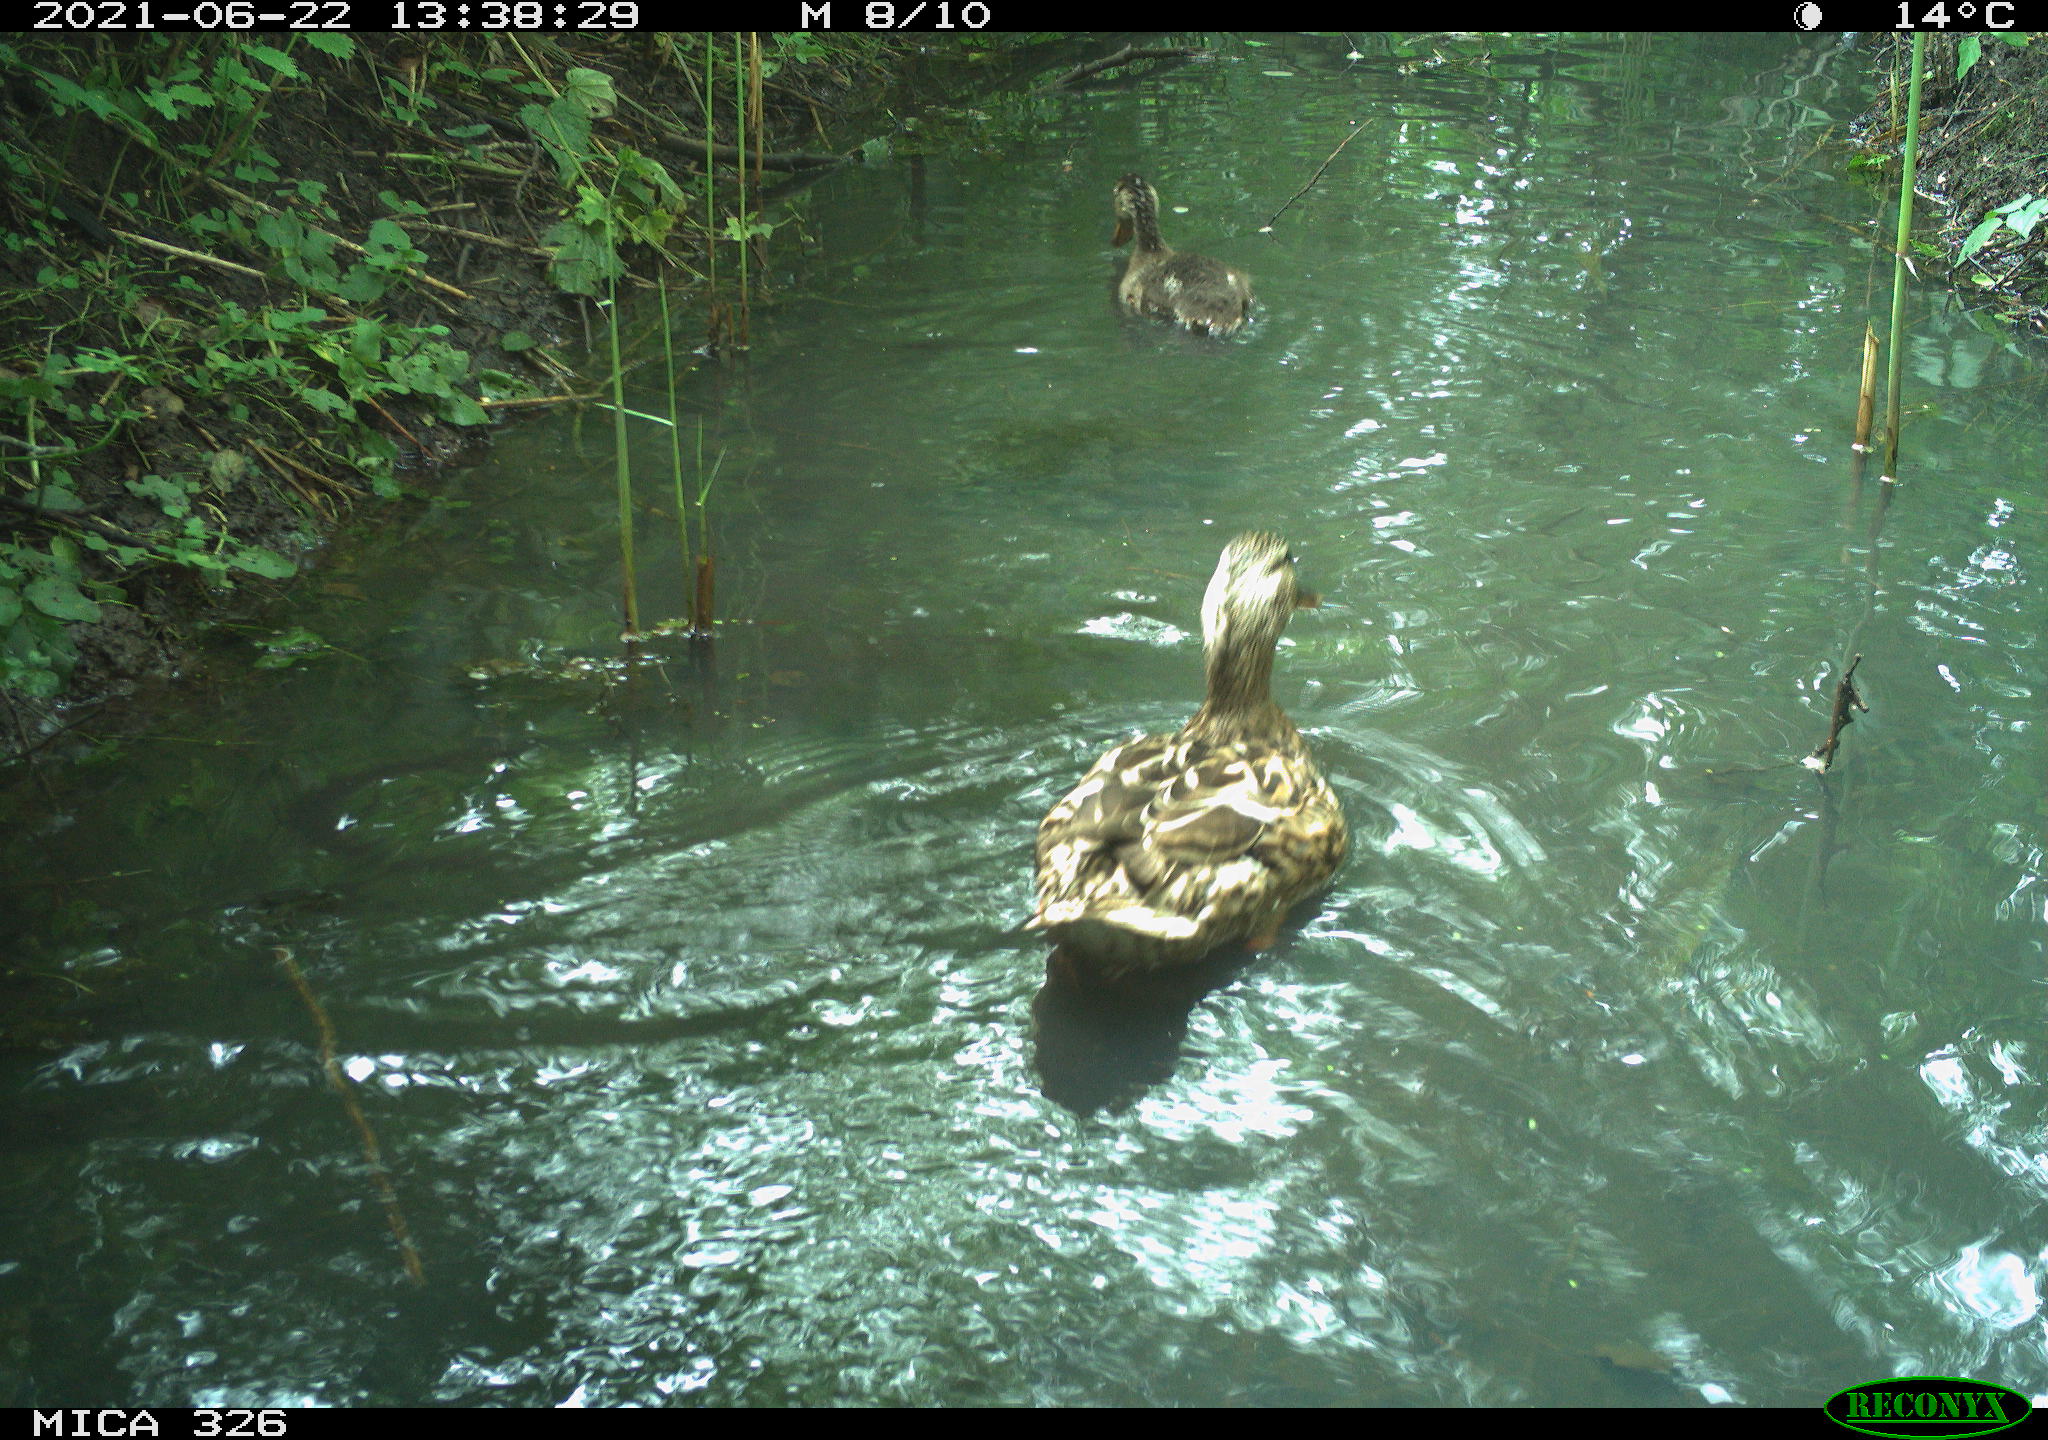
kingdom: Animalia
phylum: Chordata
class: Aves
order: Anseriformes
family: Anatidae
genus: Anas
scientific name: Anas platyrhynchos
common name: Mallard
